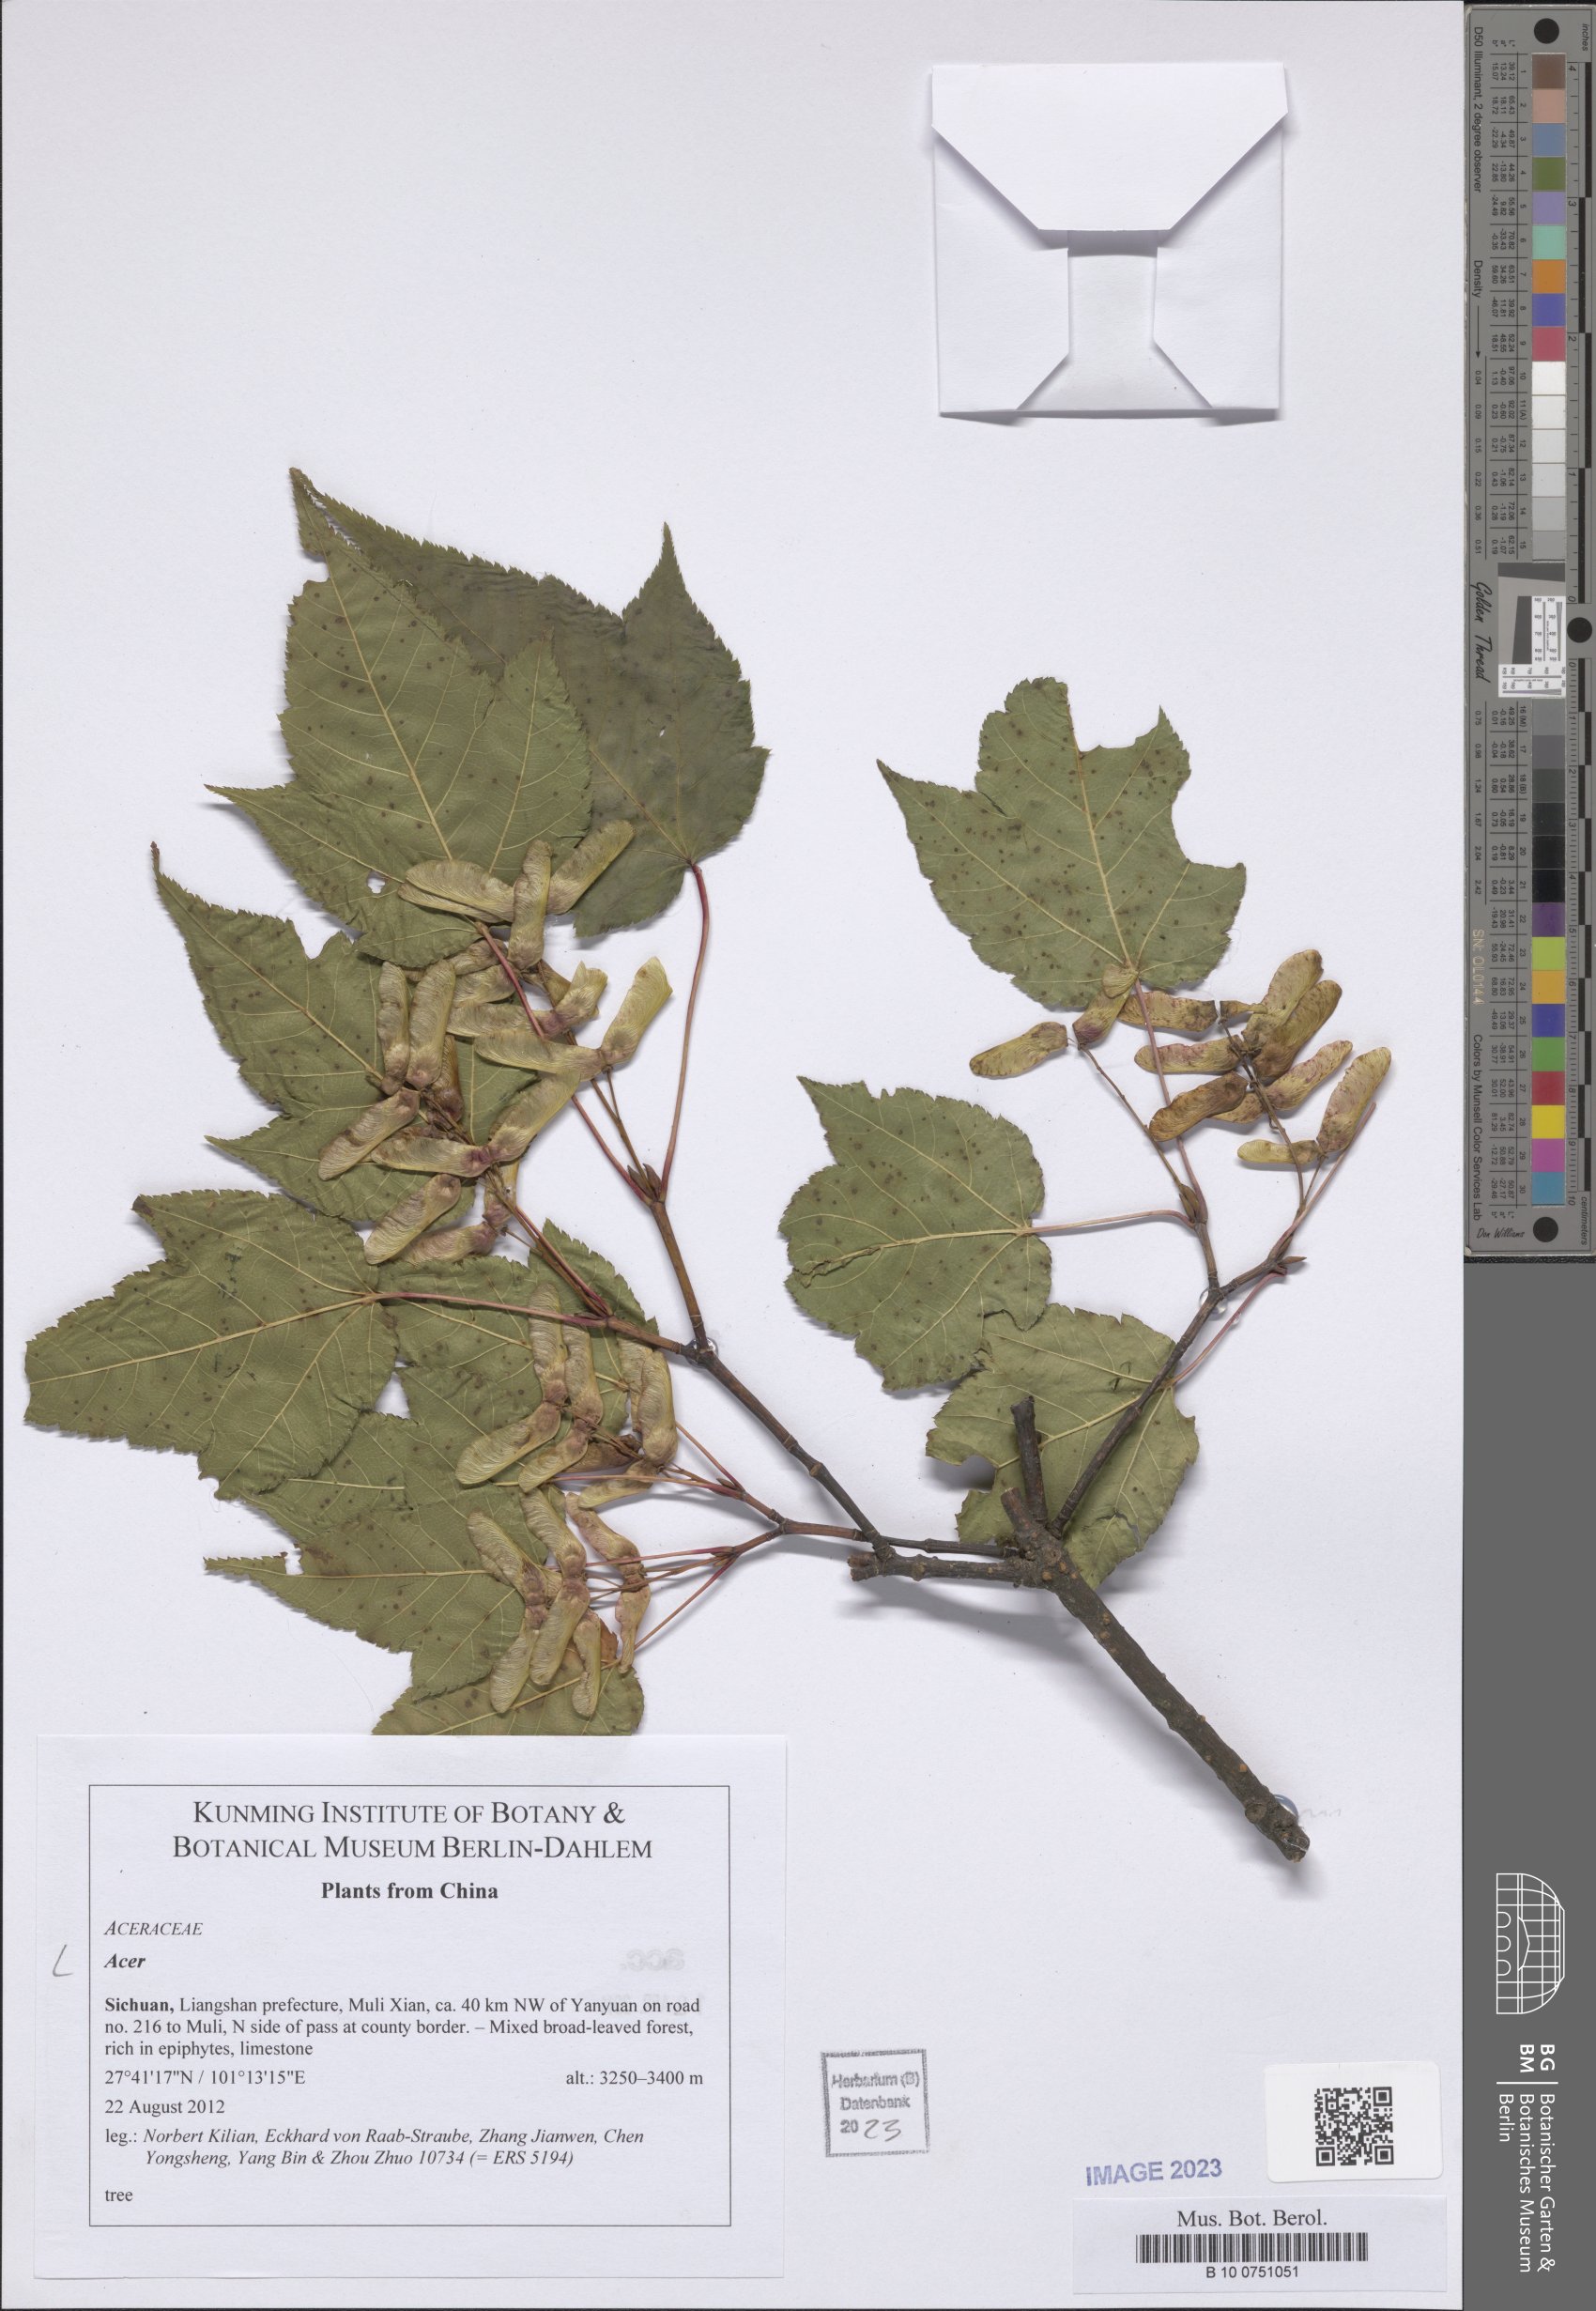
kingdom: Plantae
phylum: Tracheophyta
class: Magnoliopsida
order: Sapindales
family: Sapindaceae
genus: Acer
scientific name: Acer
